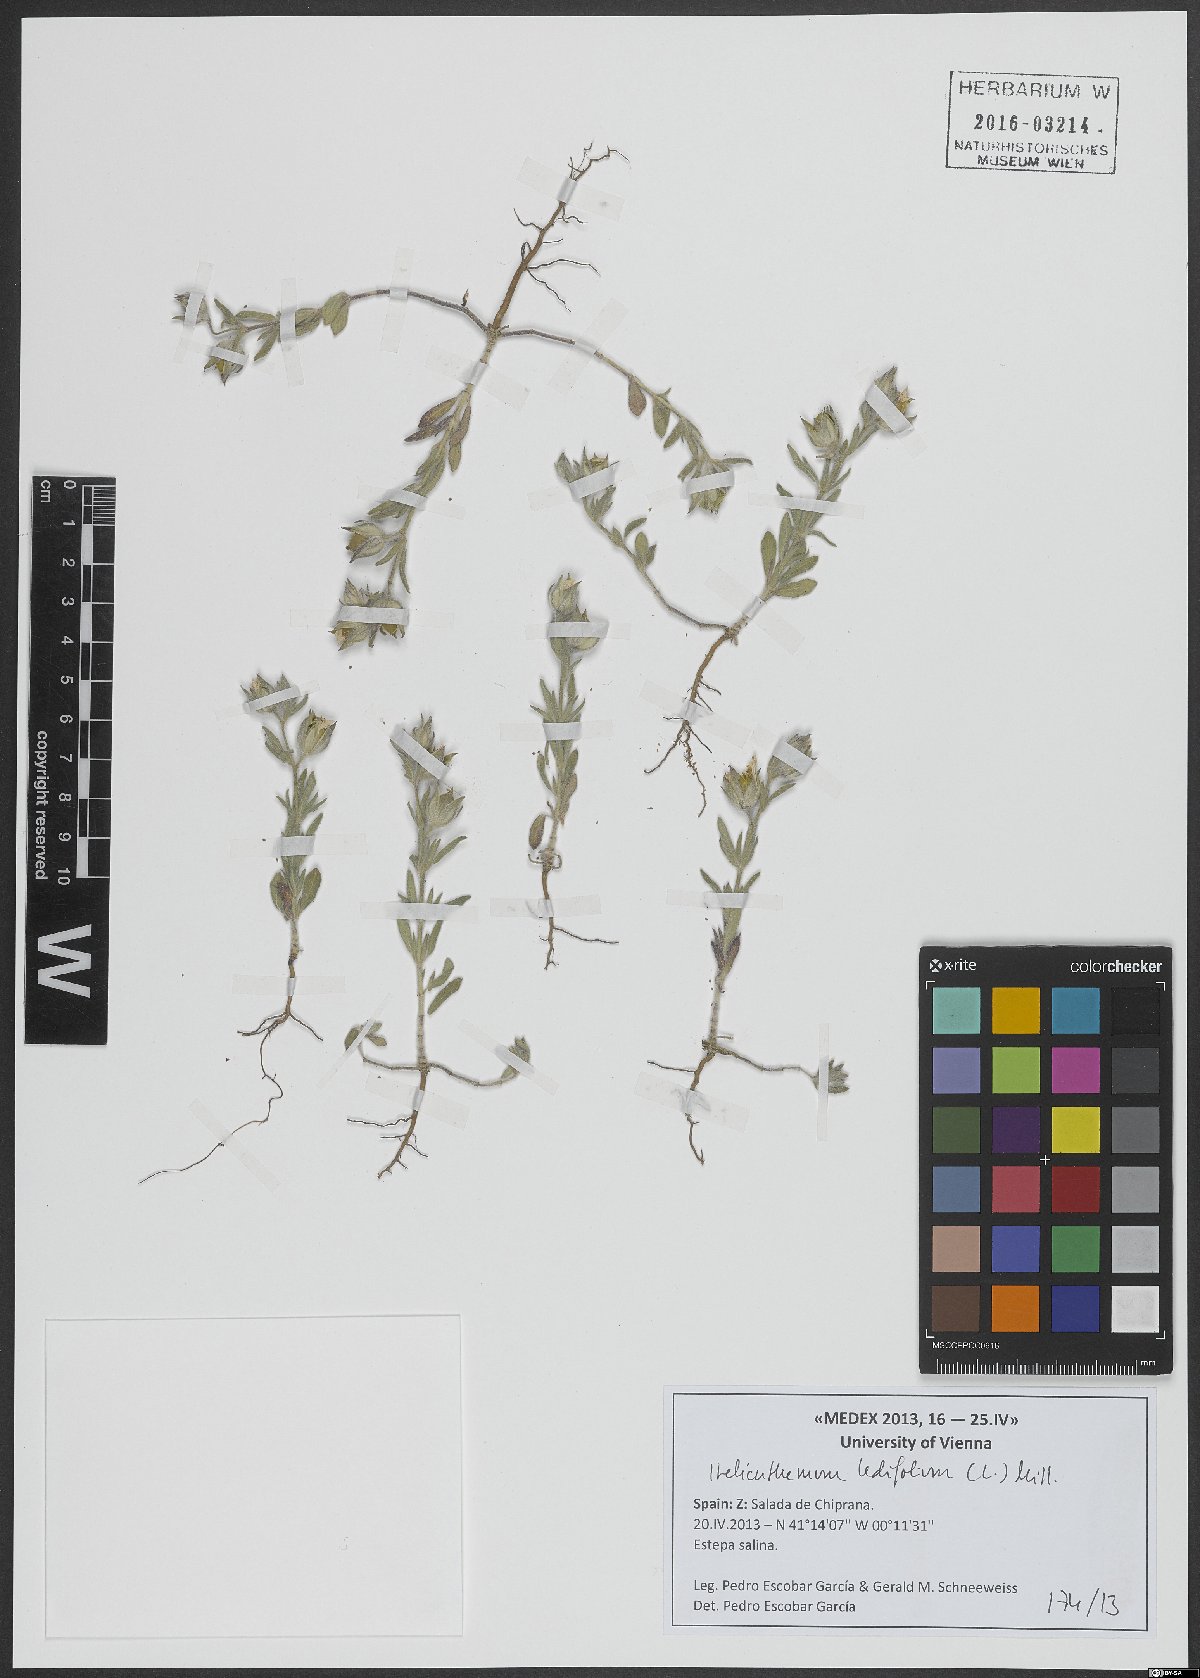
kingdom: Plantae
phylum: Tracheophyta
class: Magnoliopsida
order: Malvales
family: Cistaceae
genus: Helianthemum
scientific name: Helianthemum ledifolium
